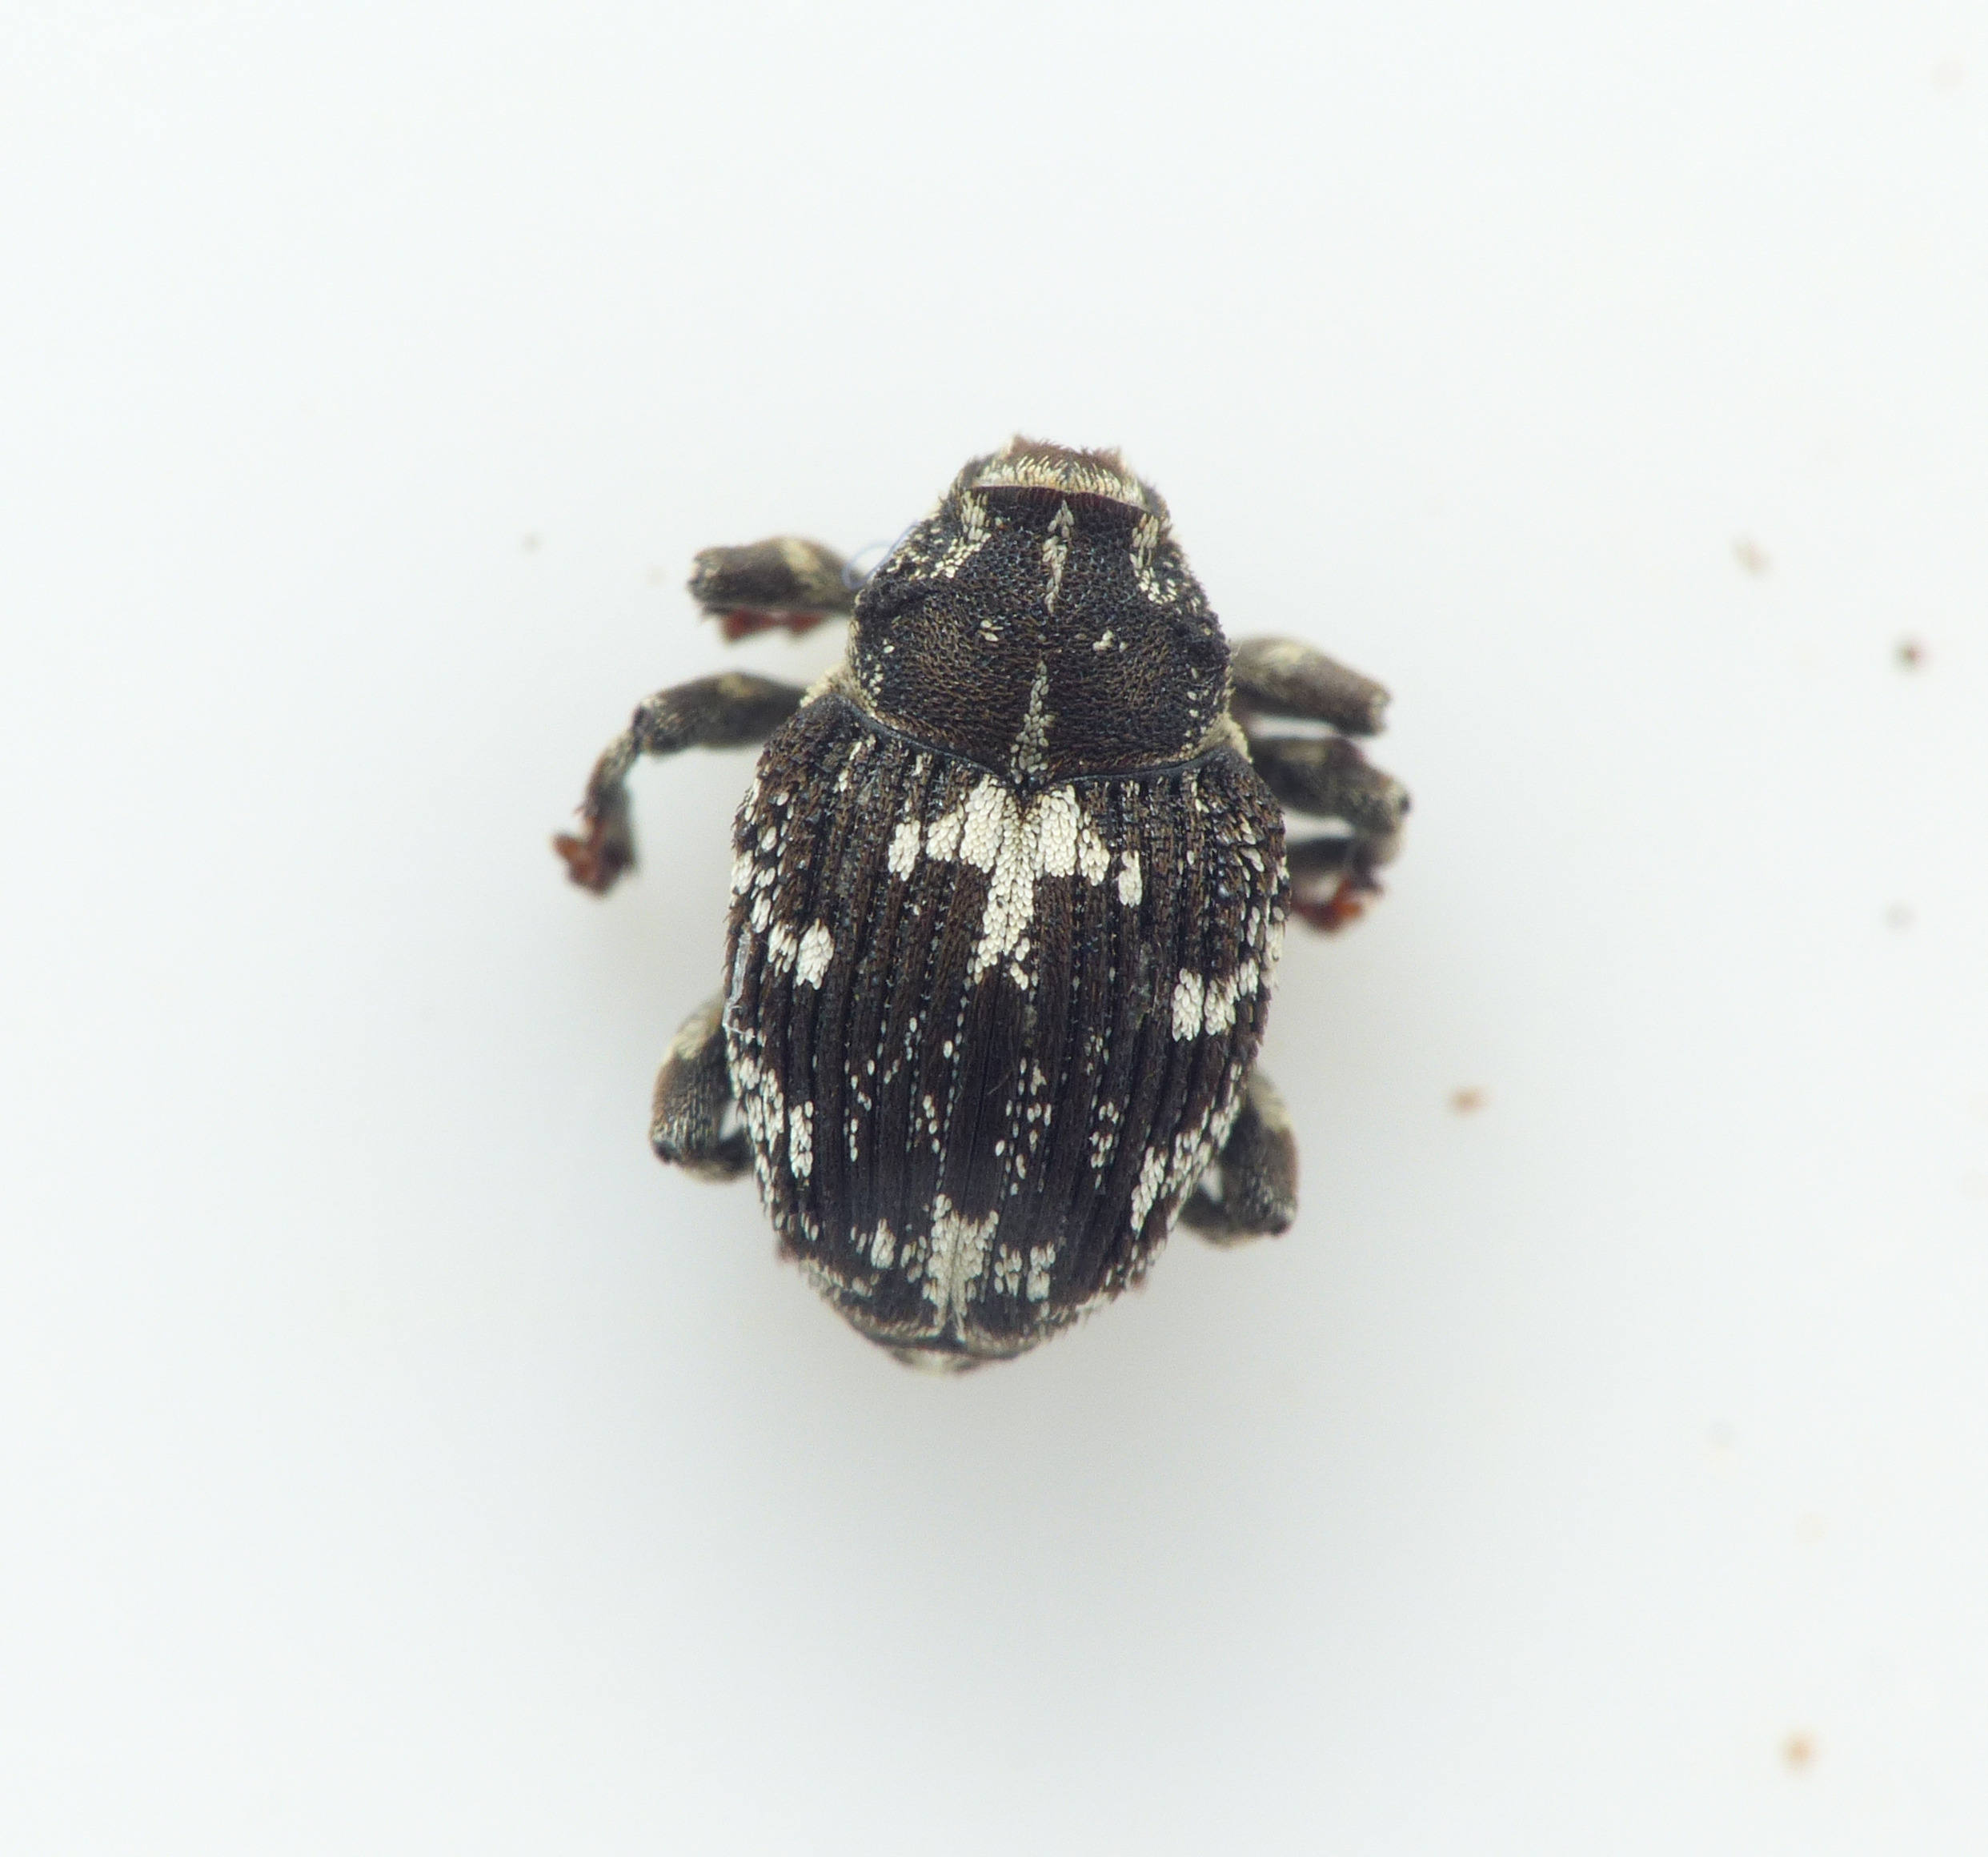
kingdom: Animalia
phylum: Arthropoda
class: Insecta
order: Coleoptera
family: Curculionidae
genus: Mogulones
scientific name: Mogulones javetii
